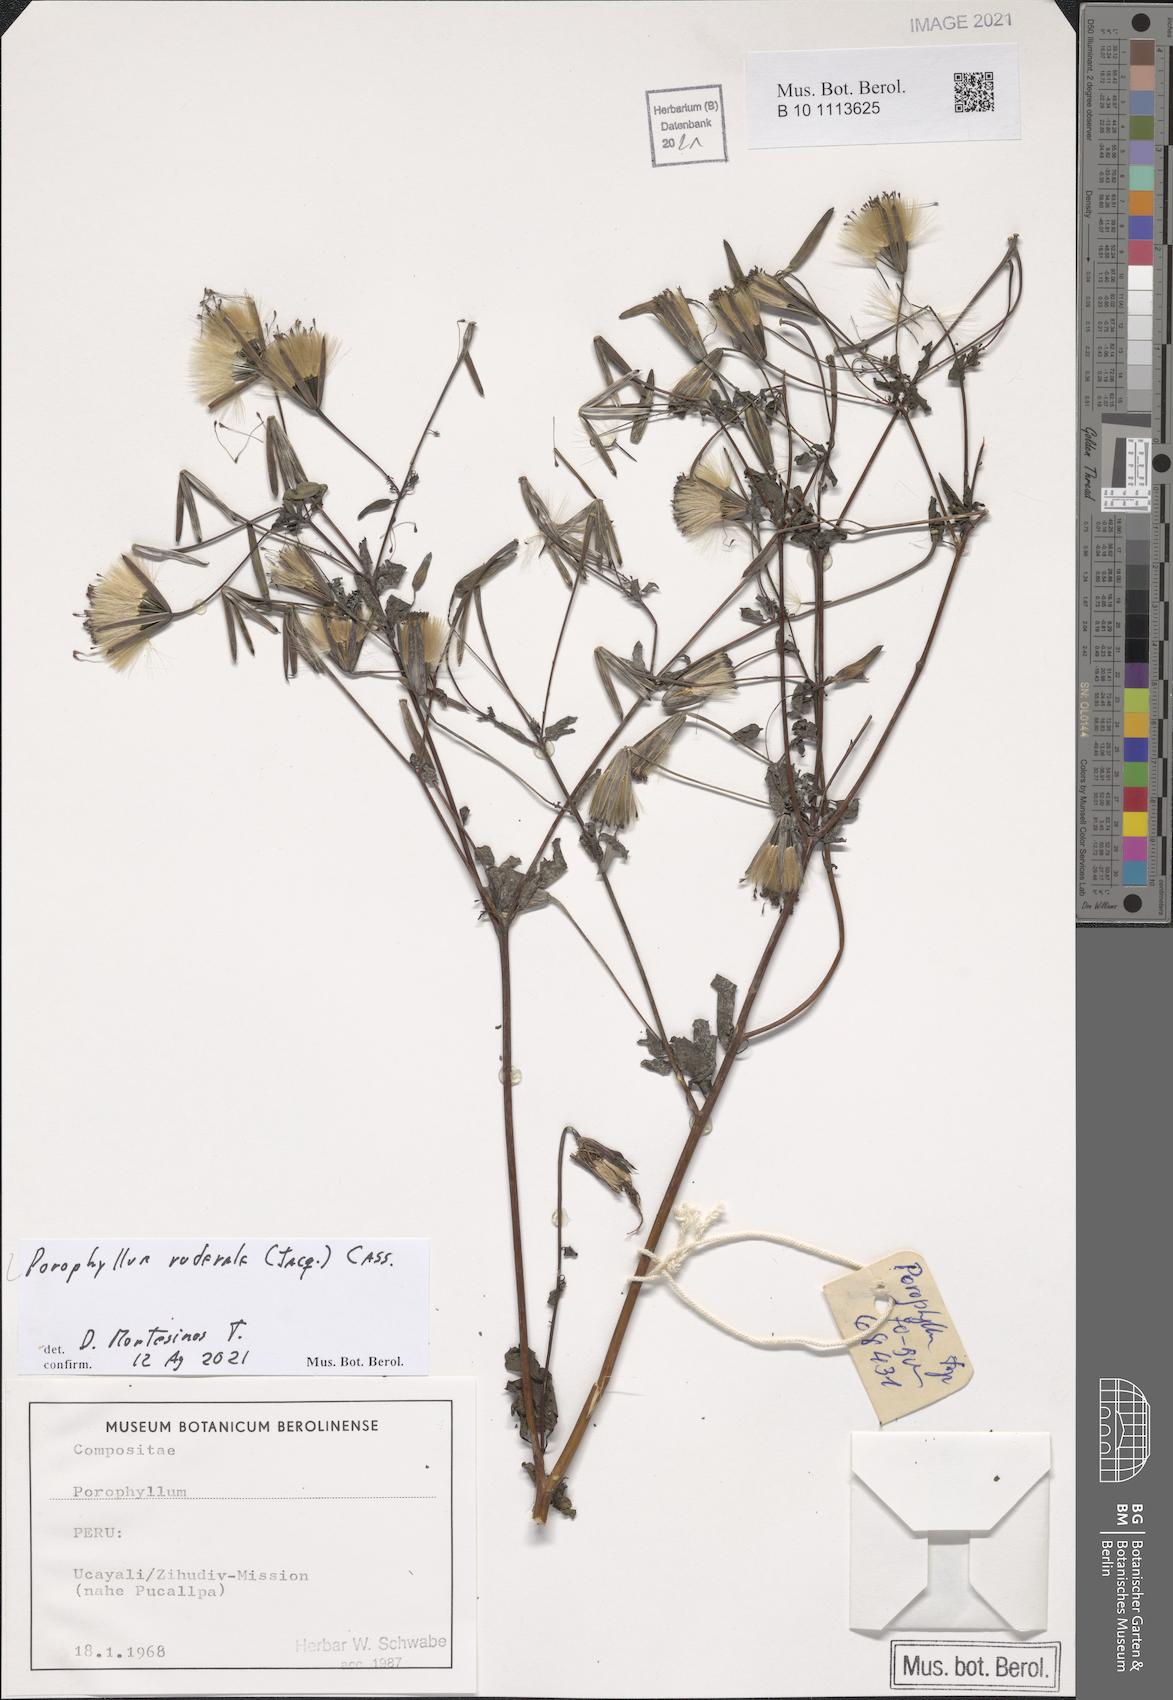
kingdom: Plantae
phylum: Tracheophyta
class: Magnoliopsida
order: Asterales
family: Asteraceae
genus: Porophyllum
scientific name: Porophyllum ruderale
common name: Yerba porosa
